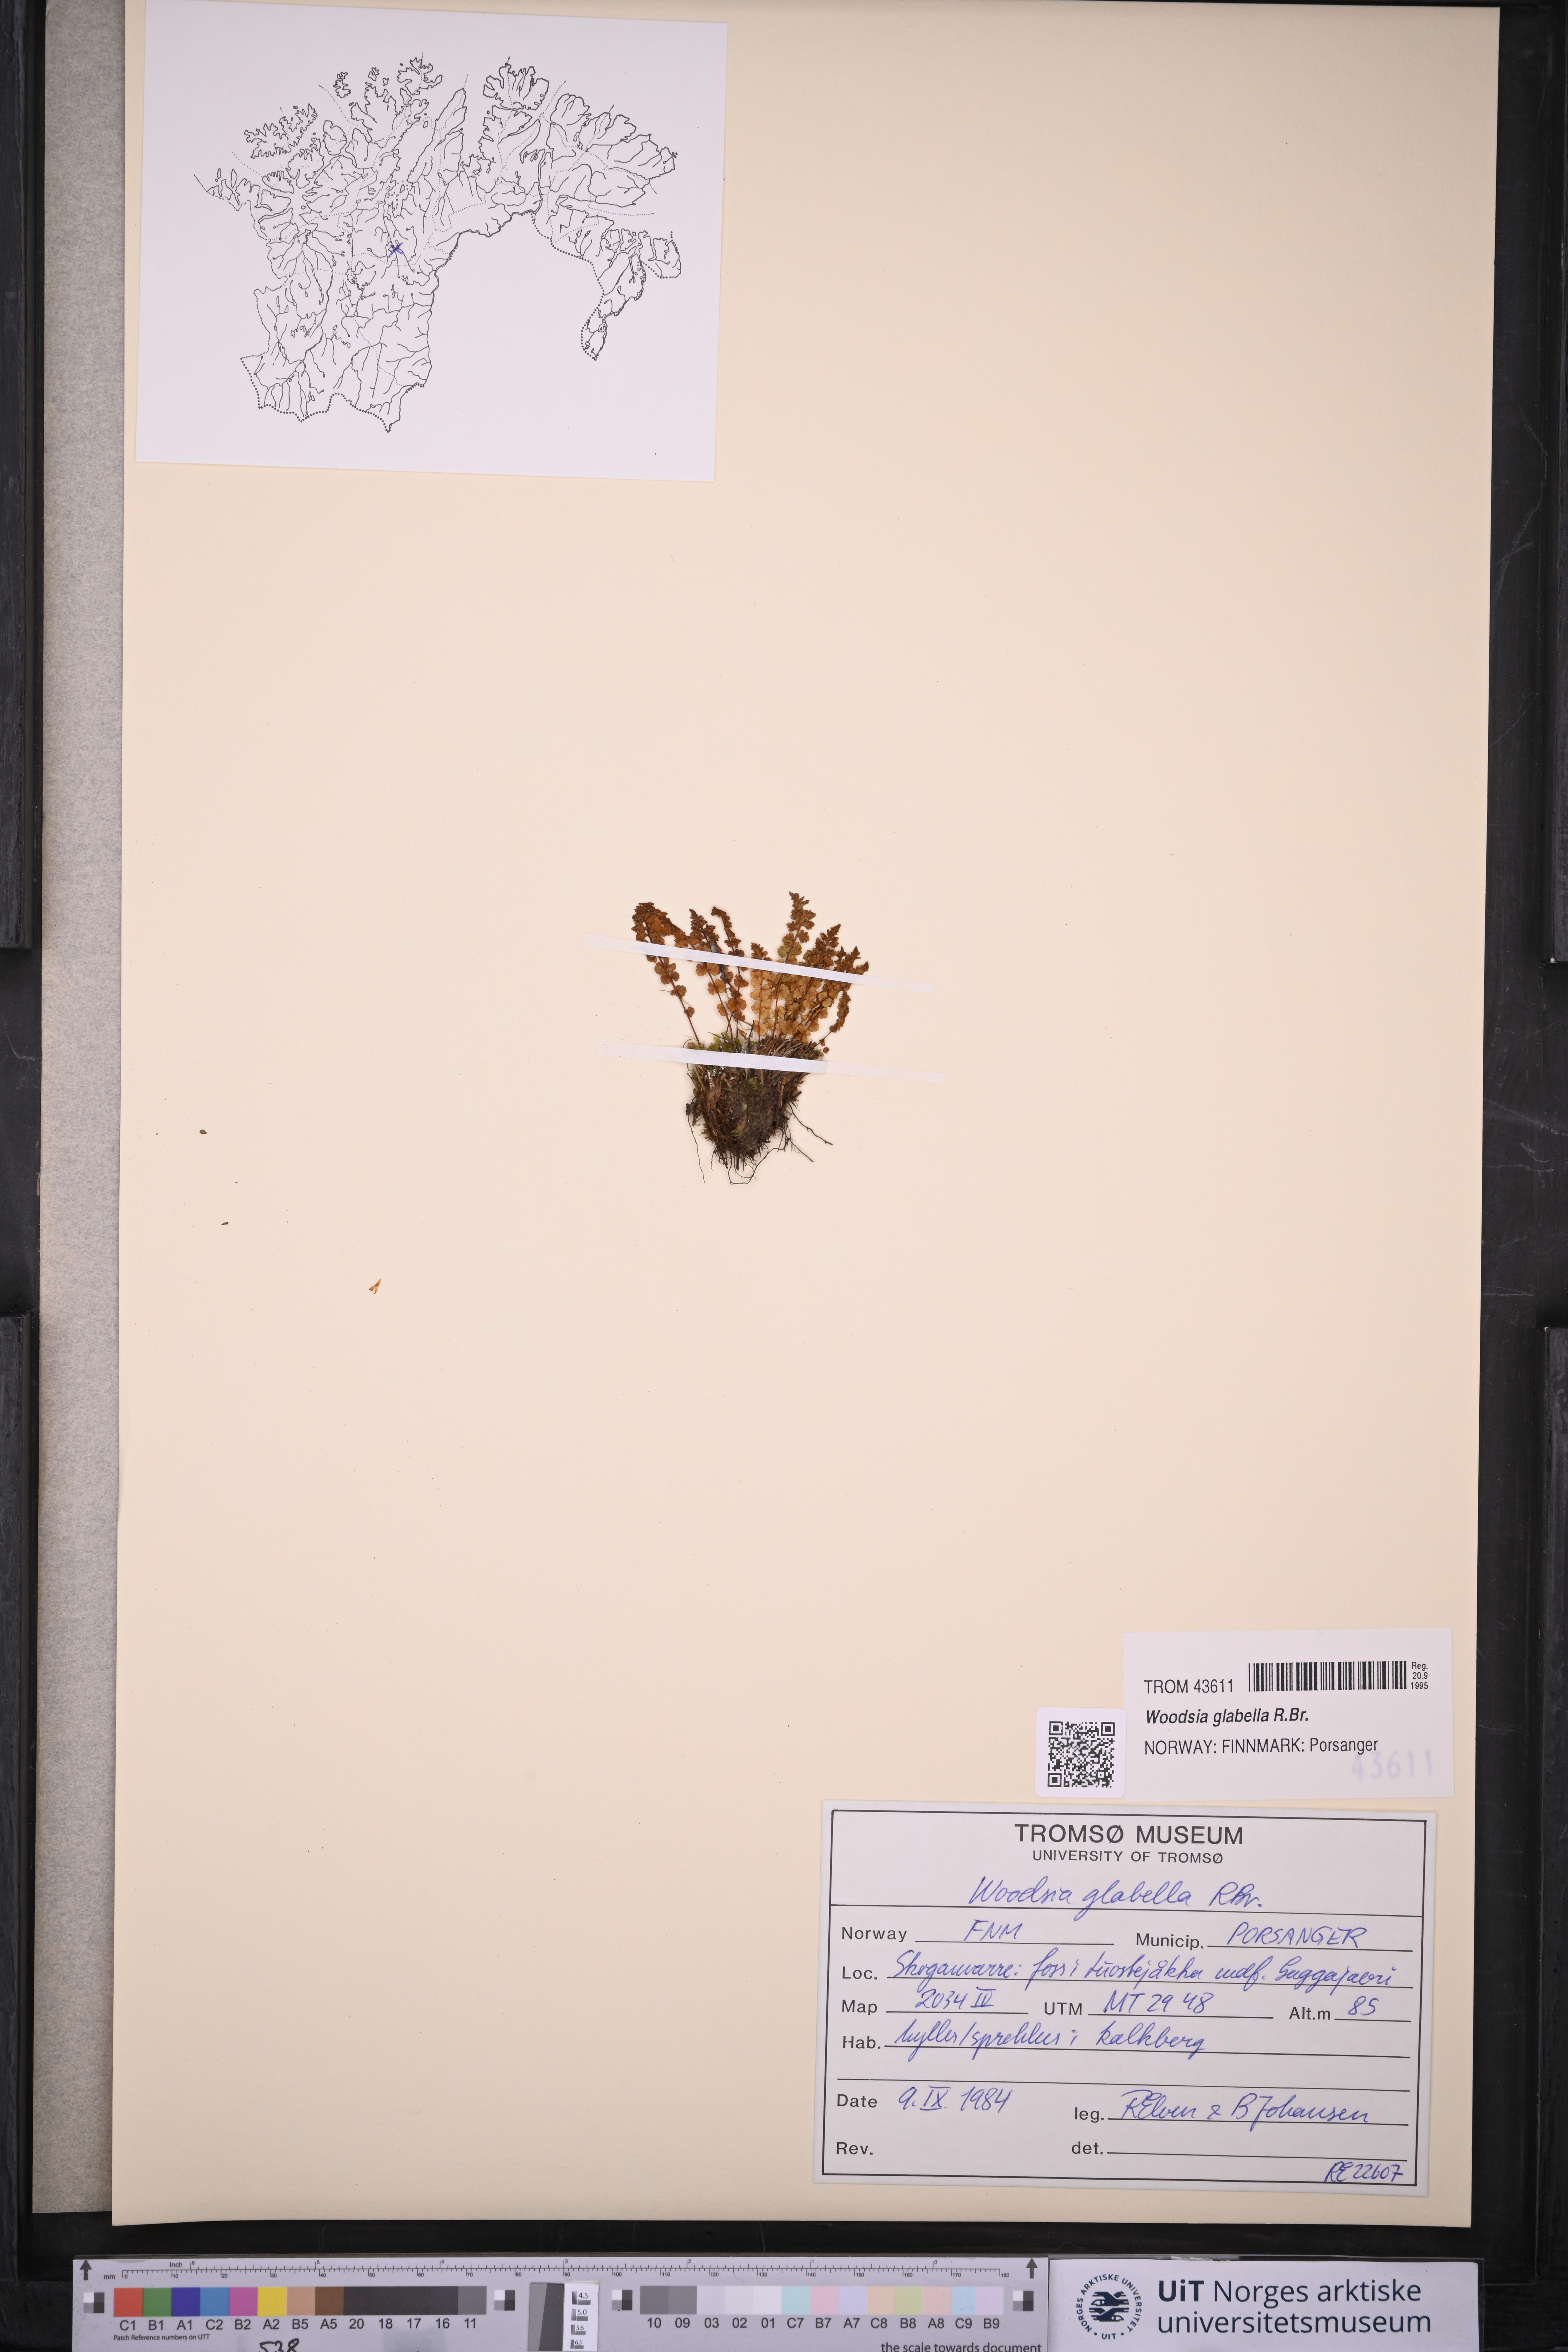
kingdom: Plantae
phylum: Tracheophyta
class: Polypodiopsida
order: Polypodiales
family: Woodsiaceae
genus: Woodsia
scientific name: Woodsia glabella
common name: Smooth woodsia
